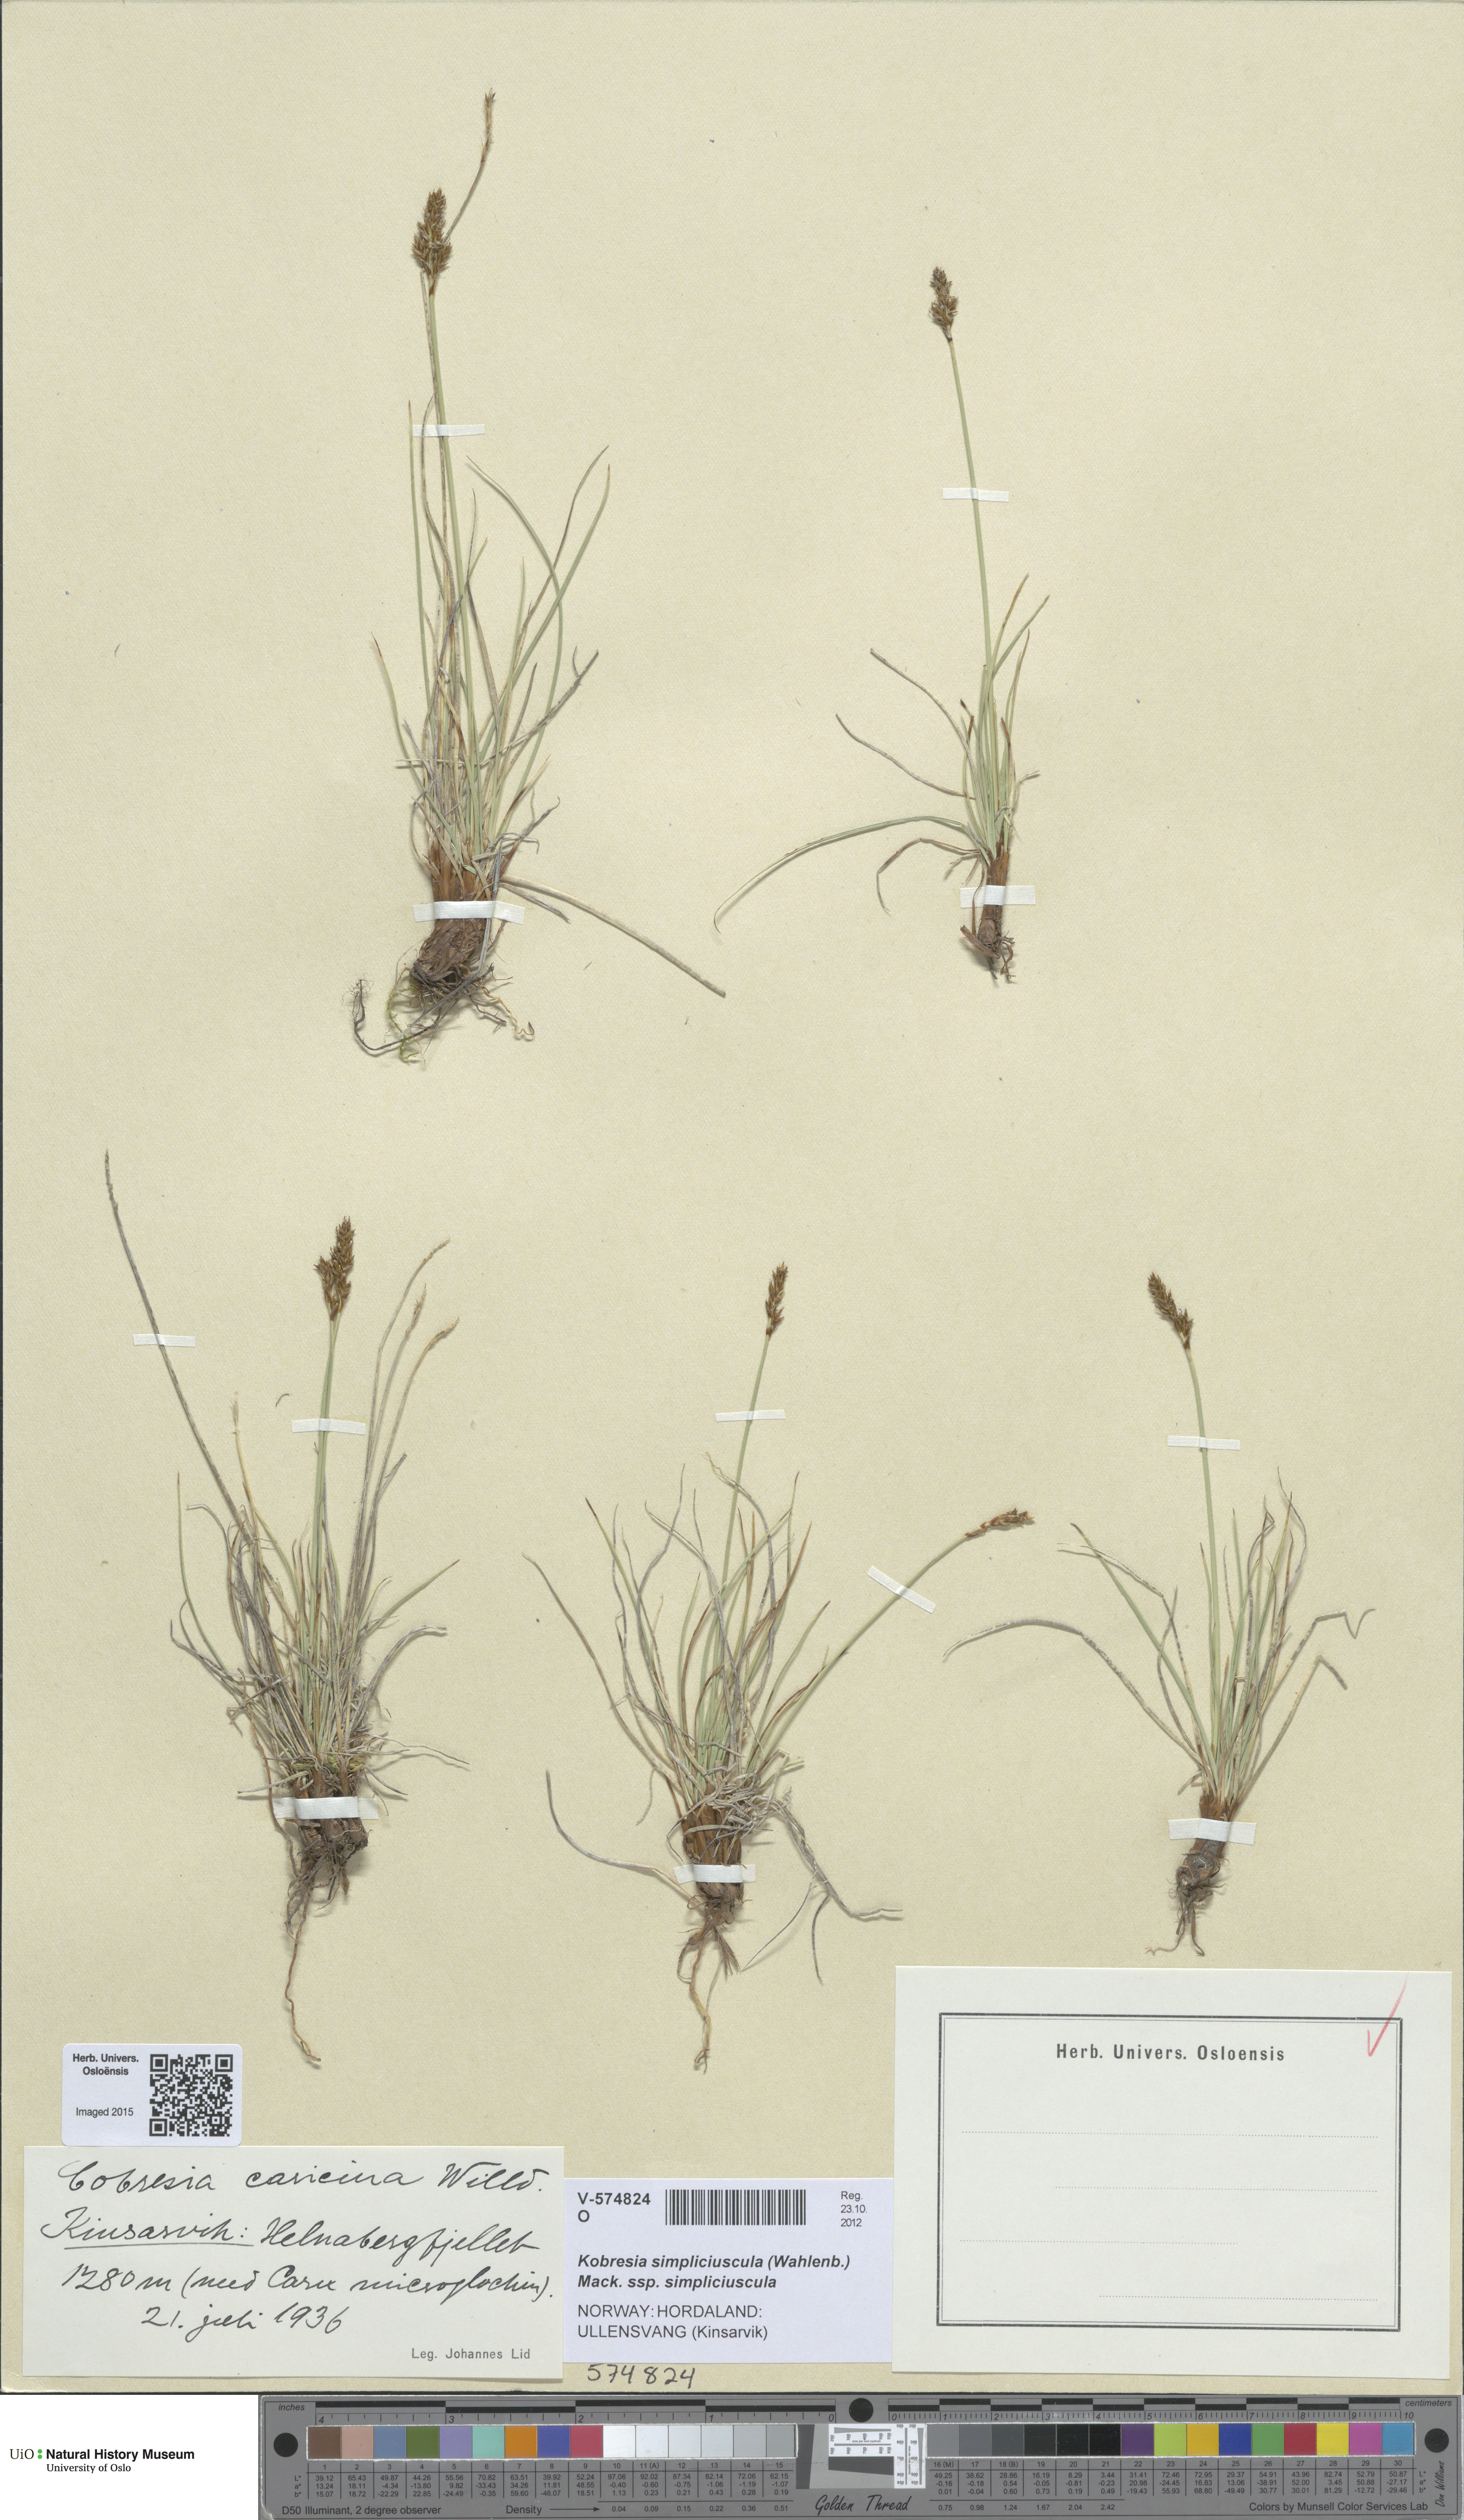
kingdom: Plantae
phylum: Tracheophyta
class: Liliopsida
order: Poales
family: Cyperaceae
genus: Carex
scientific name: Carex simpliciuscula
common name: Simple bog sedge
